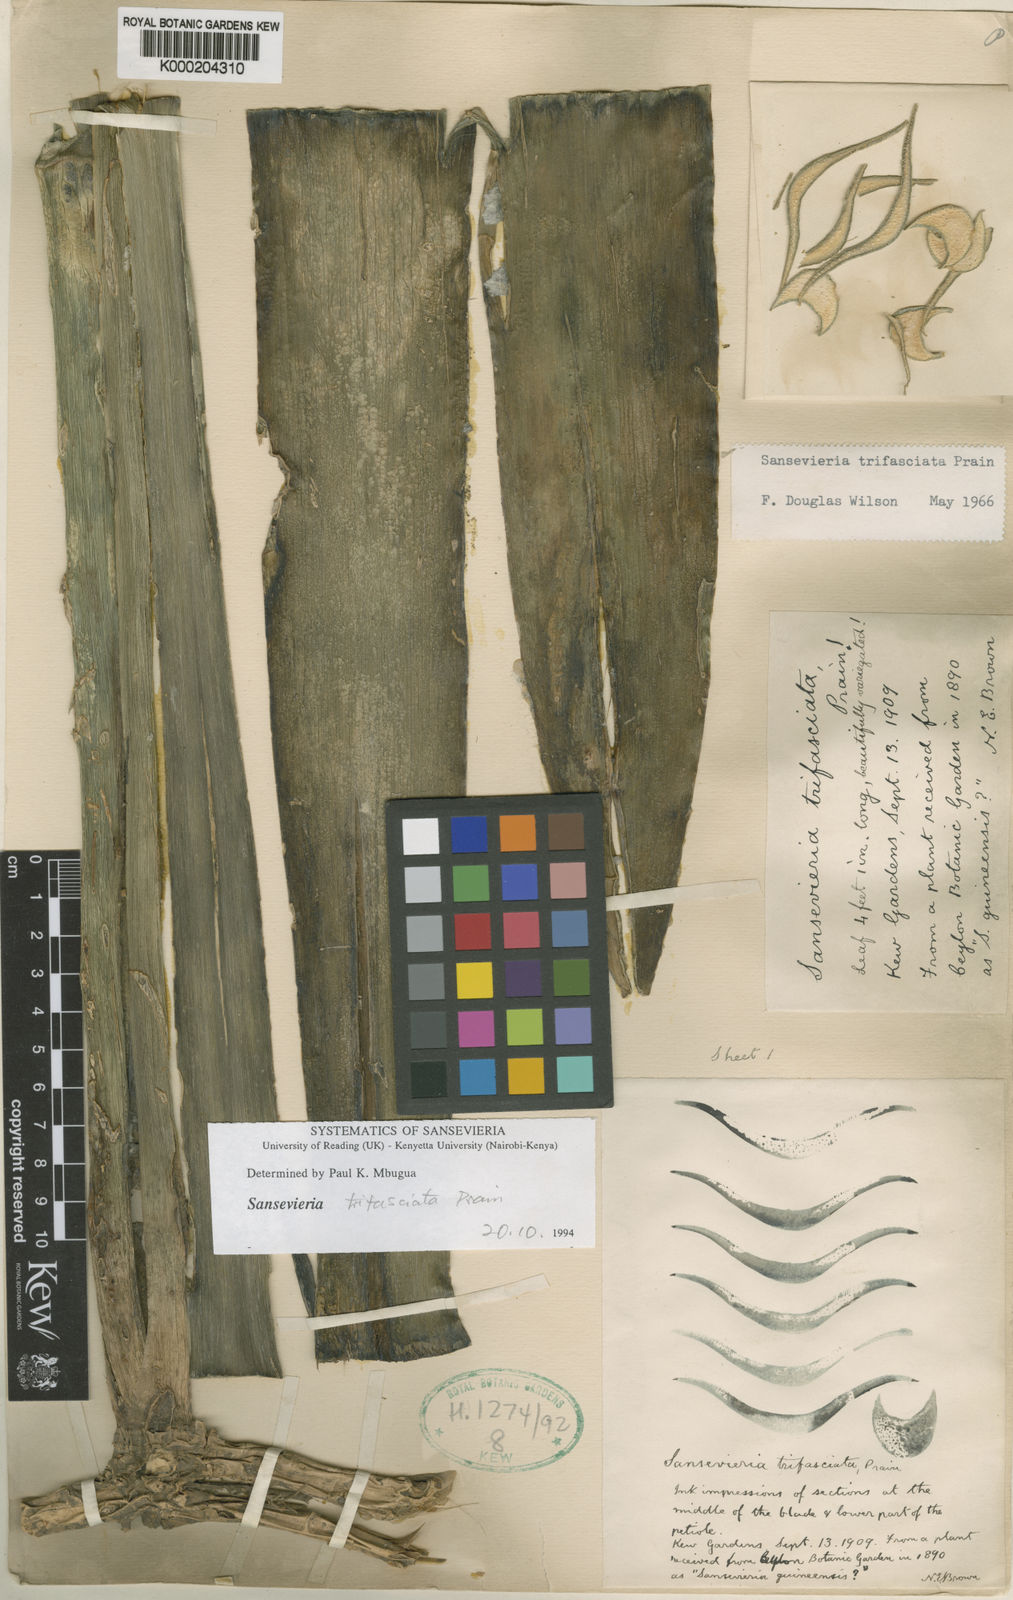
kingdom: Plantae
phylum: Tracheophyta
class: Liliopsida
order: Asparagales
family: Asparagaceae
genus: Dracaena
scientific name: Dracaena trifasciata
